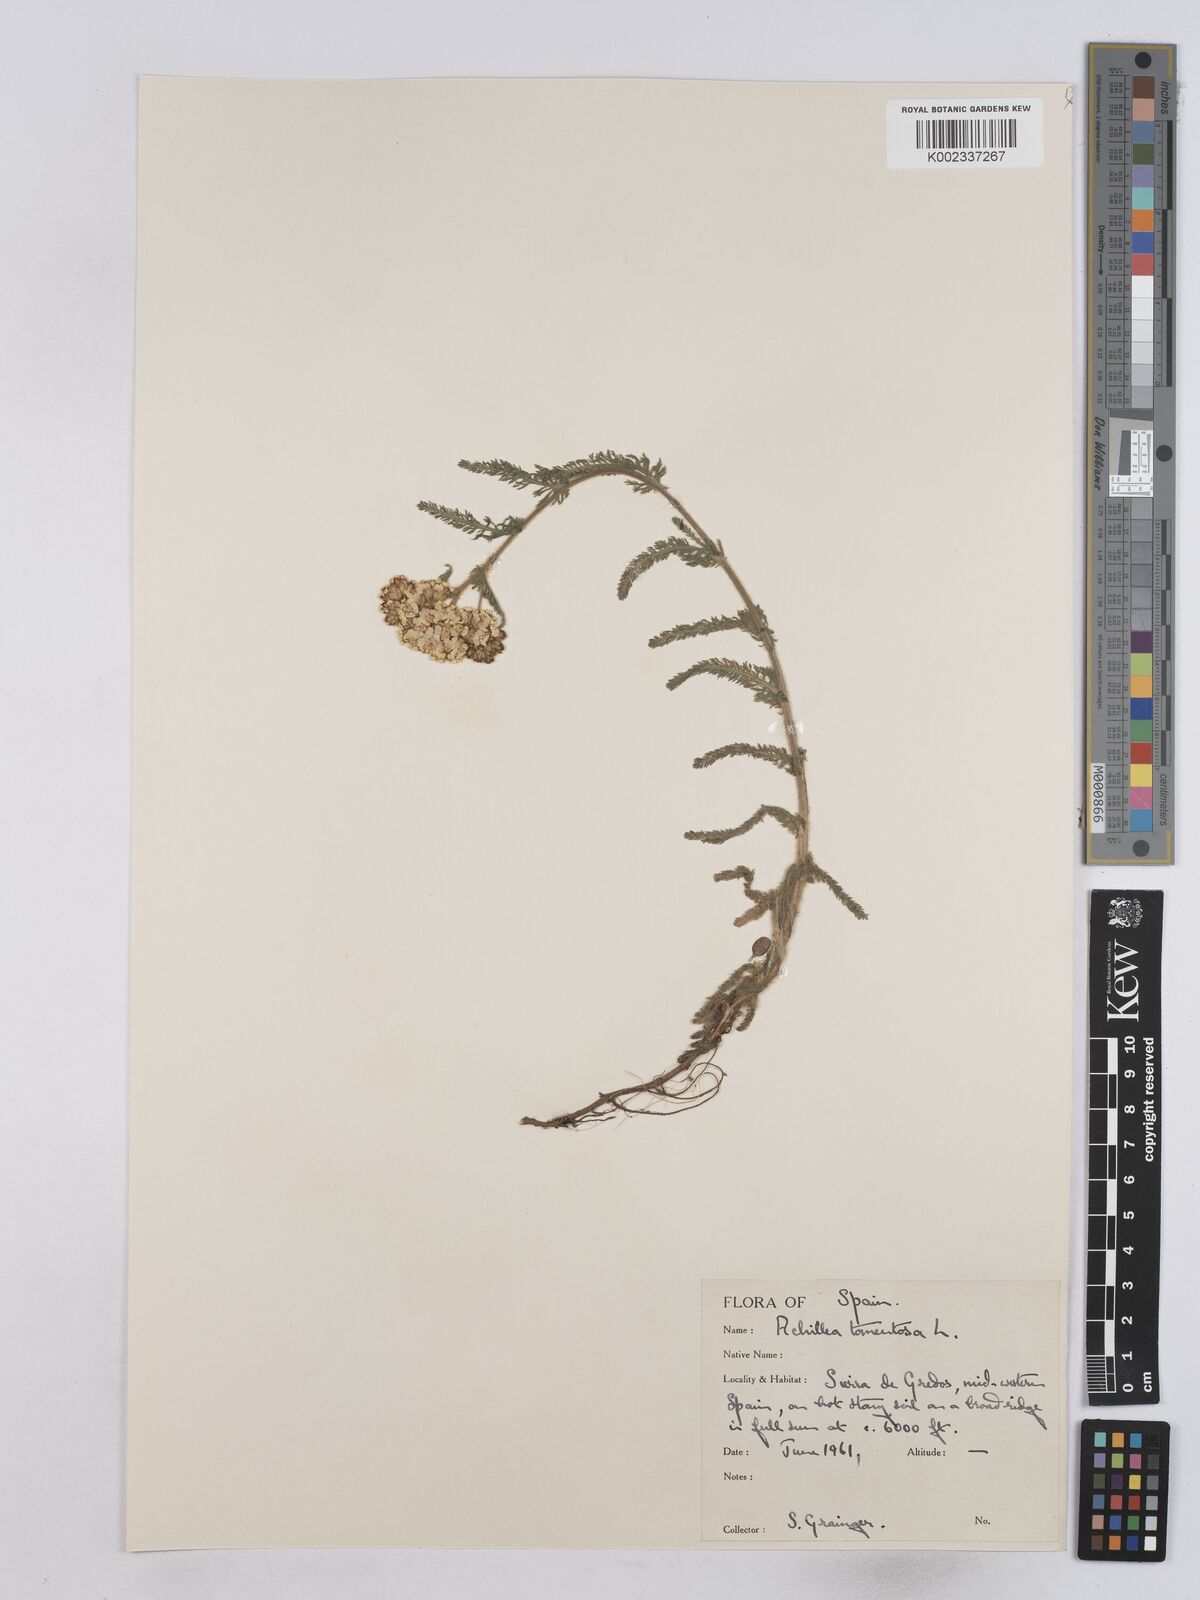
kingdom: Plantae
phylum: Tracheophyta
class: Magnoliopsida
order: Asterales
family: Asteraceae
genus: Achillea
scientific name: Achillea tomentosa
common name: Yellow milfoil
